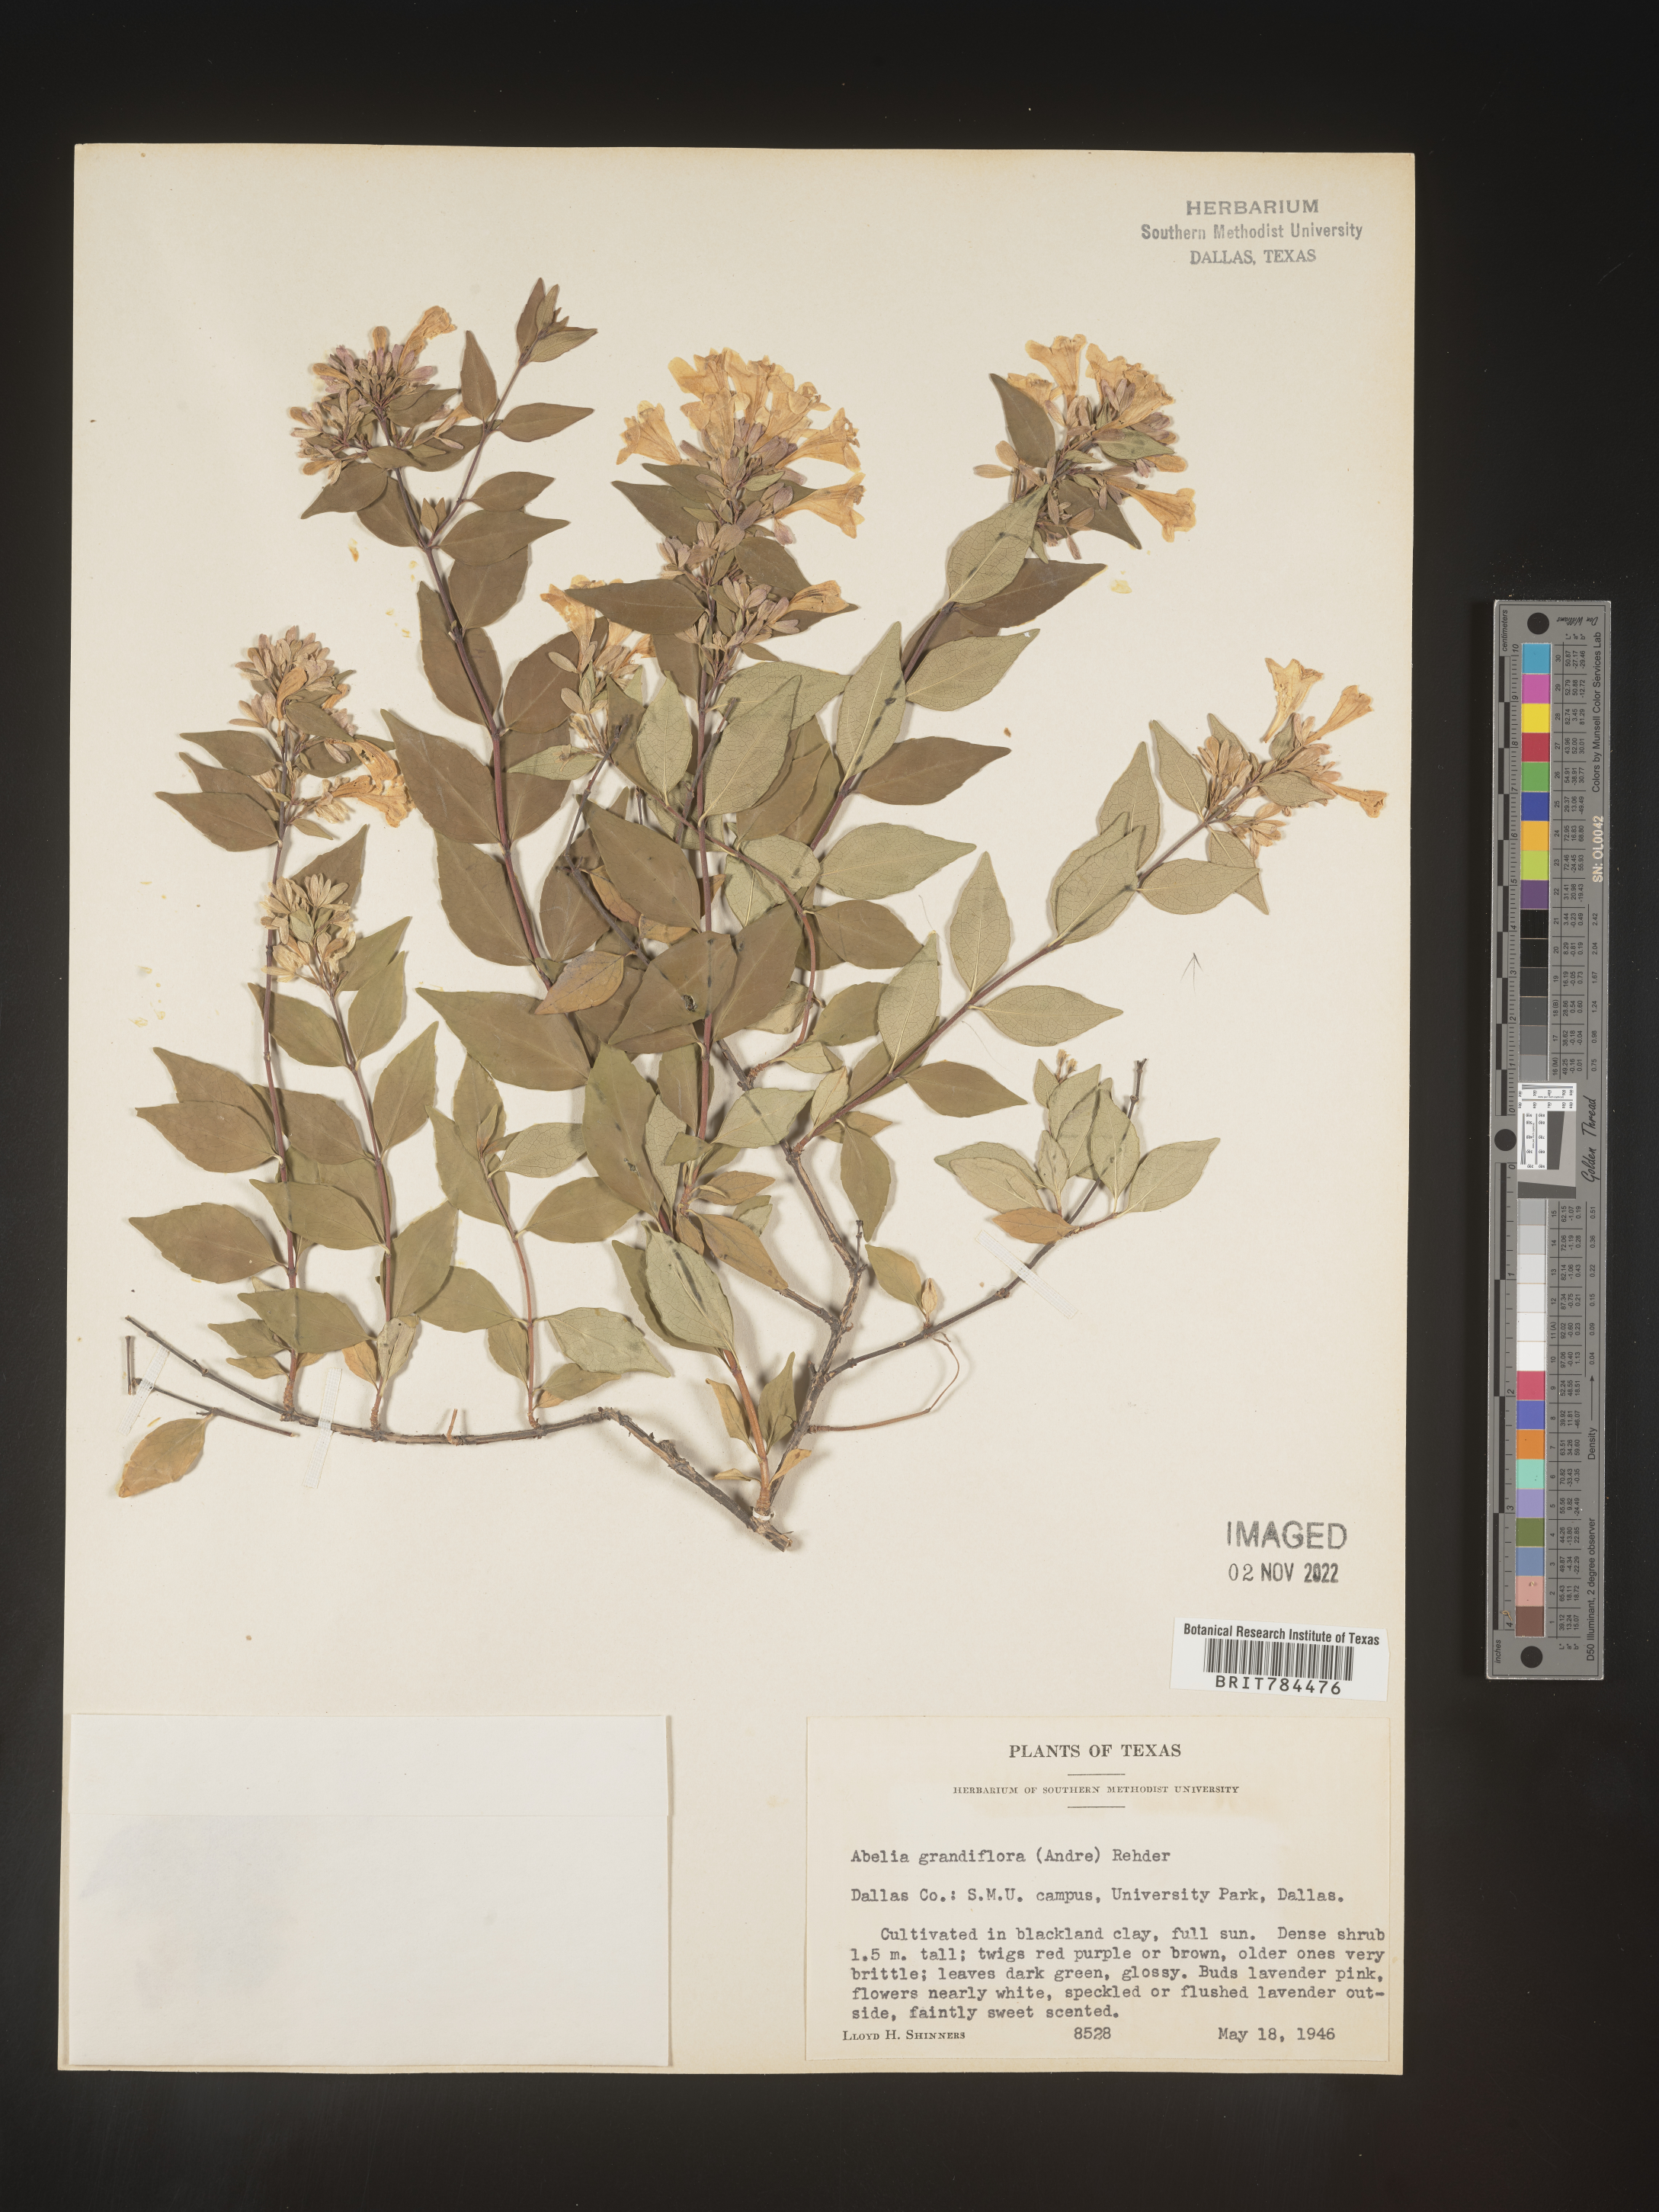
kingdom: Plantae
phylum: Tracheophyta
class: Magnoliopsida
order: Dipsacales
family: Caprifoliaceae
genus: Abelia
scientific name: Abelia
